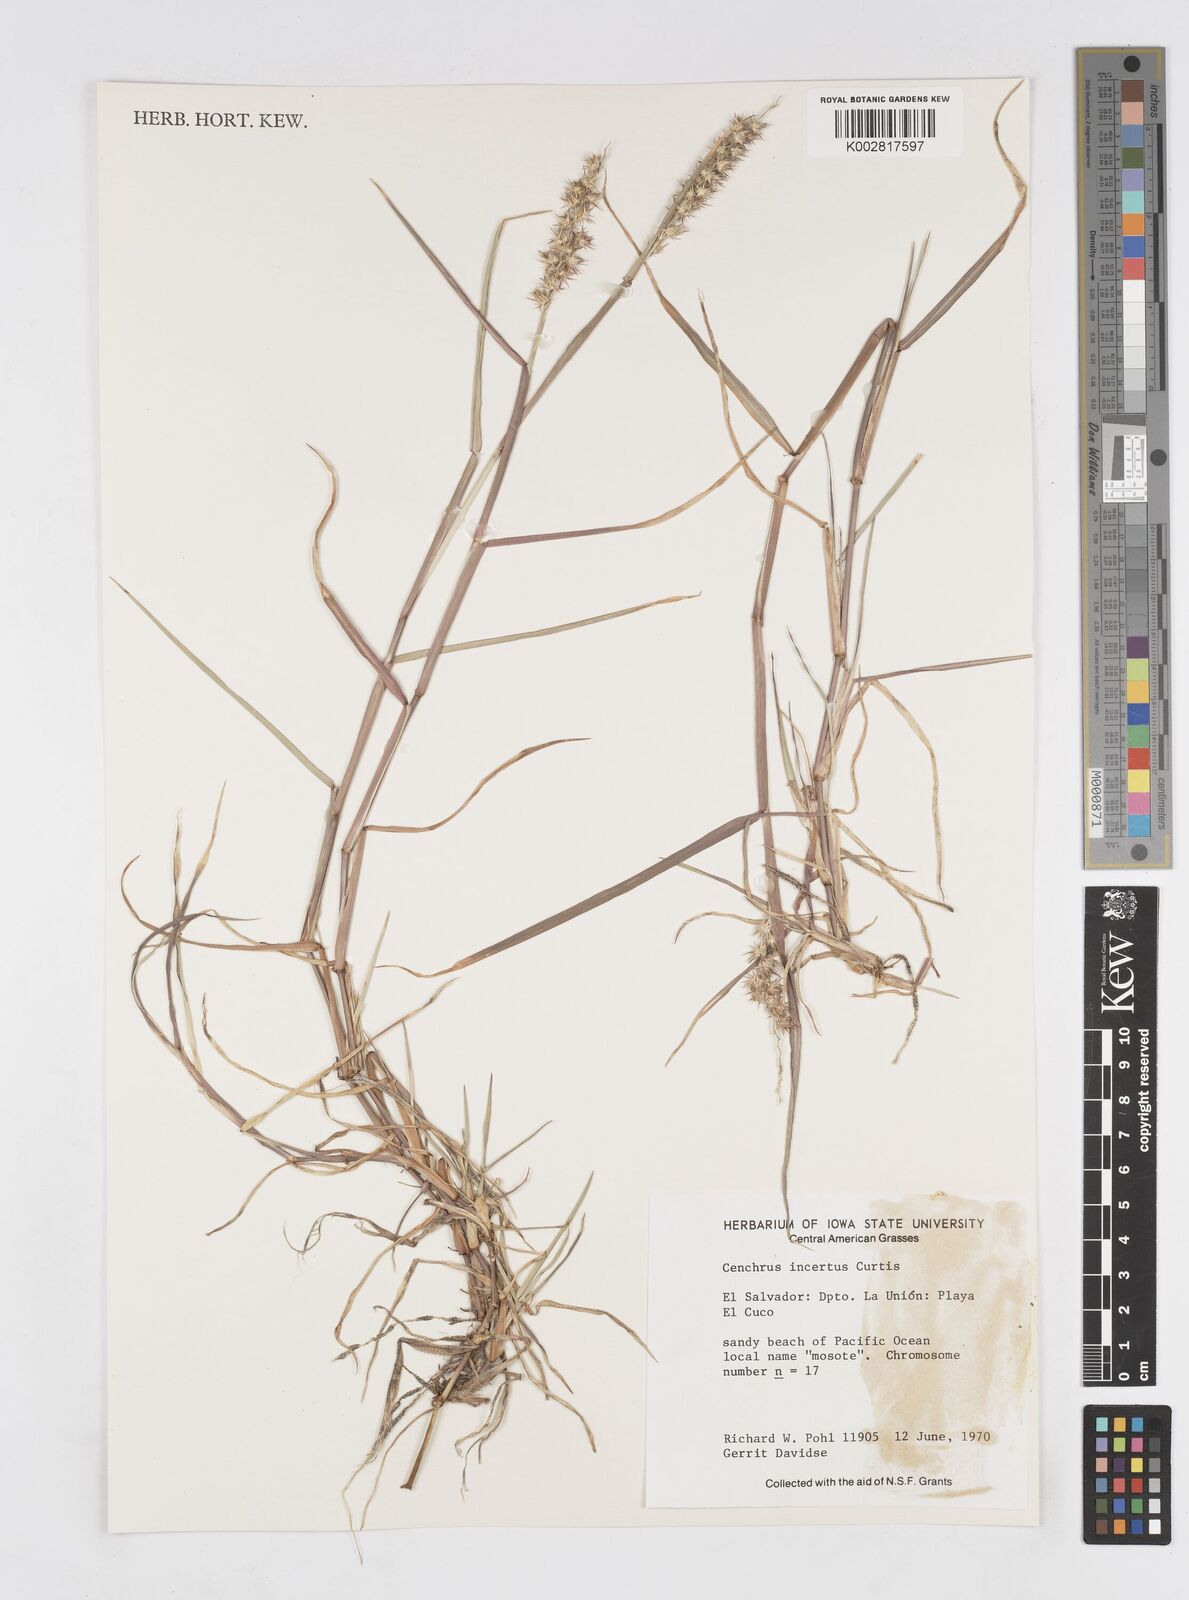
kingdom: Plantae
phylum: Tracheophyta
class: Liliopsida
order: Poales
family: Poaceae
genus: Cenchrus
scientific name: Cenchrus spinifex
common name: Coast sandbur
